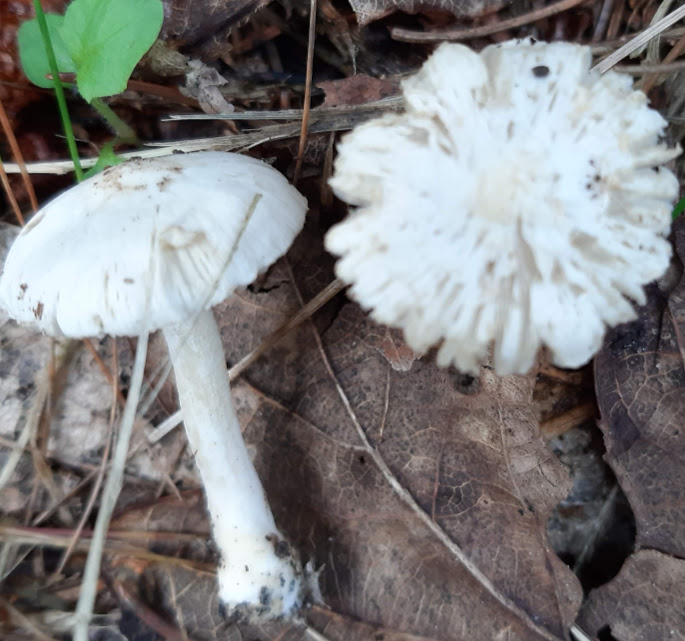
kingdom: Fungi
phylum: Basidiomycota
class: Agaricomycetes
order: Agaricales
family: Inocybaceae
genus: Inocybe
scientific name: Inocybe
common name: almindelig trævlhat
